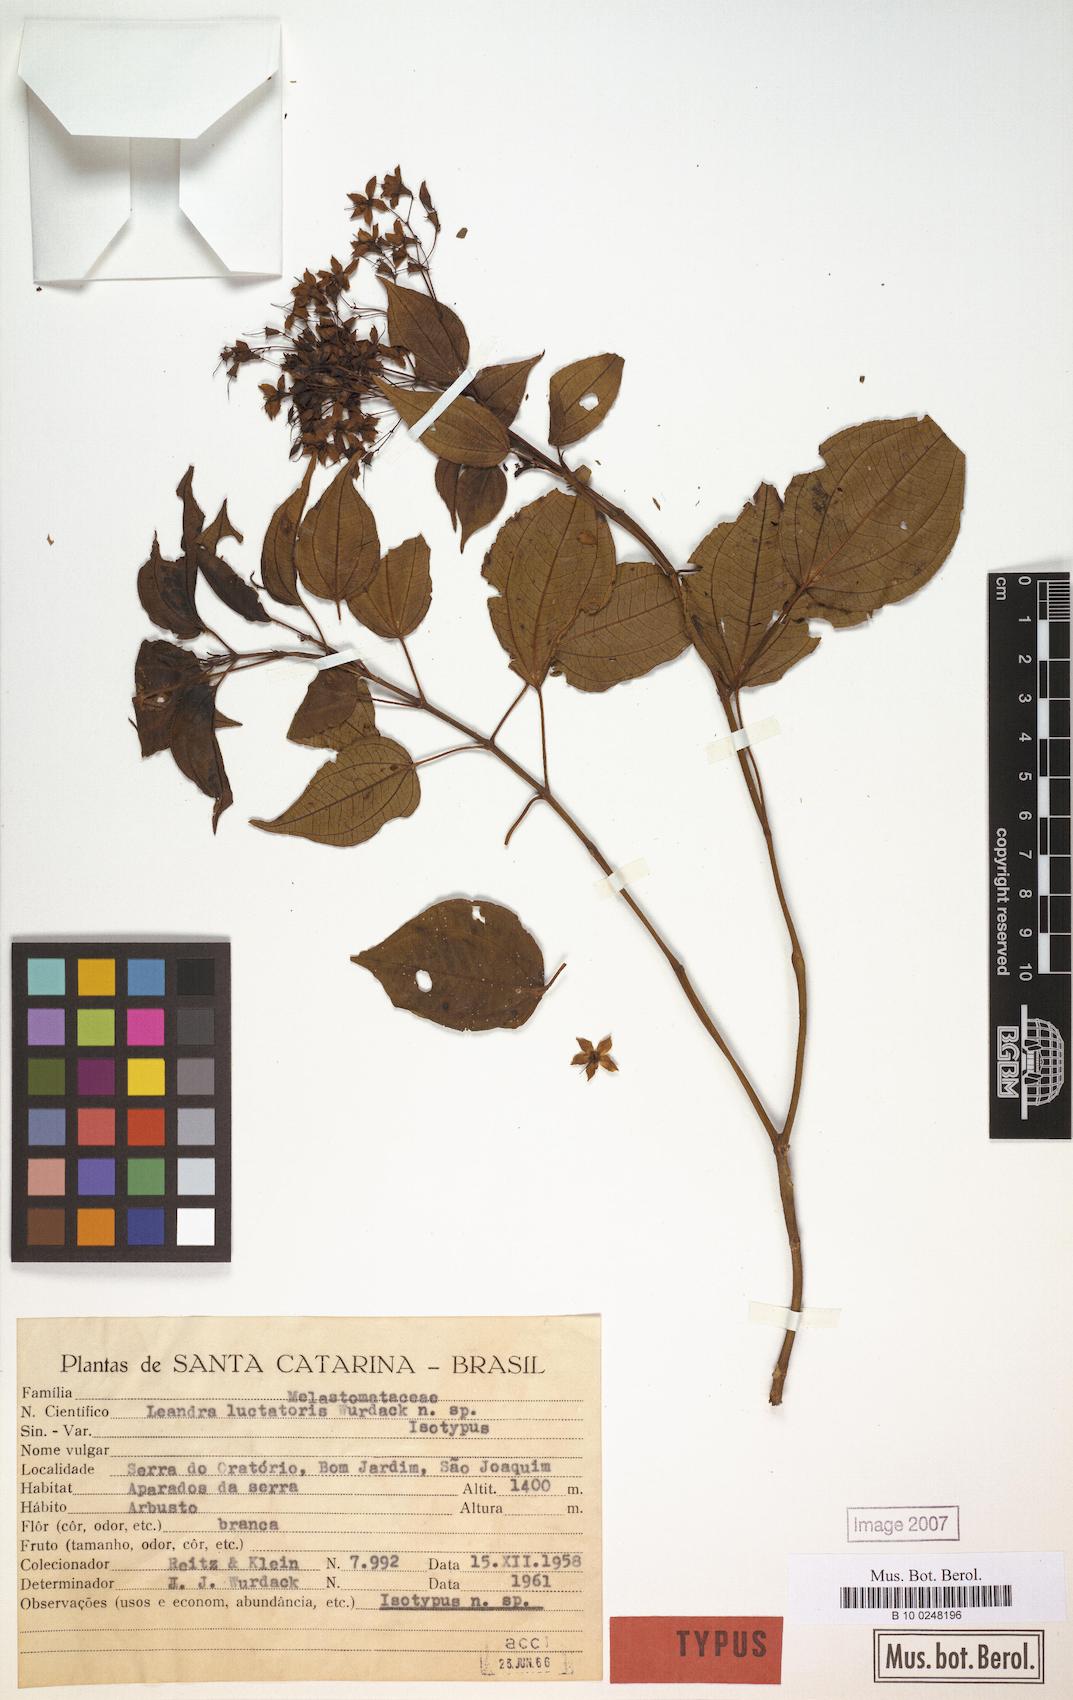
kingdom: Plantae
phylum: Tracheophyta
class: Magnoliopsida
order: Myrtales
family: Melastomataceae
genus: Miconia
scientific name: Miconia luctatoris
